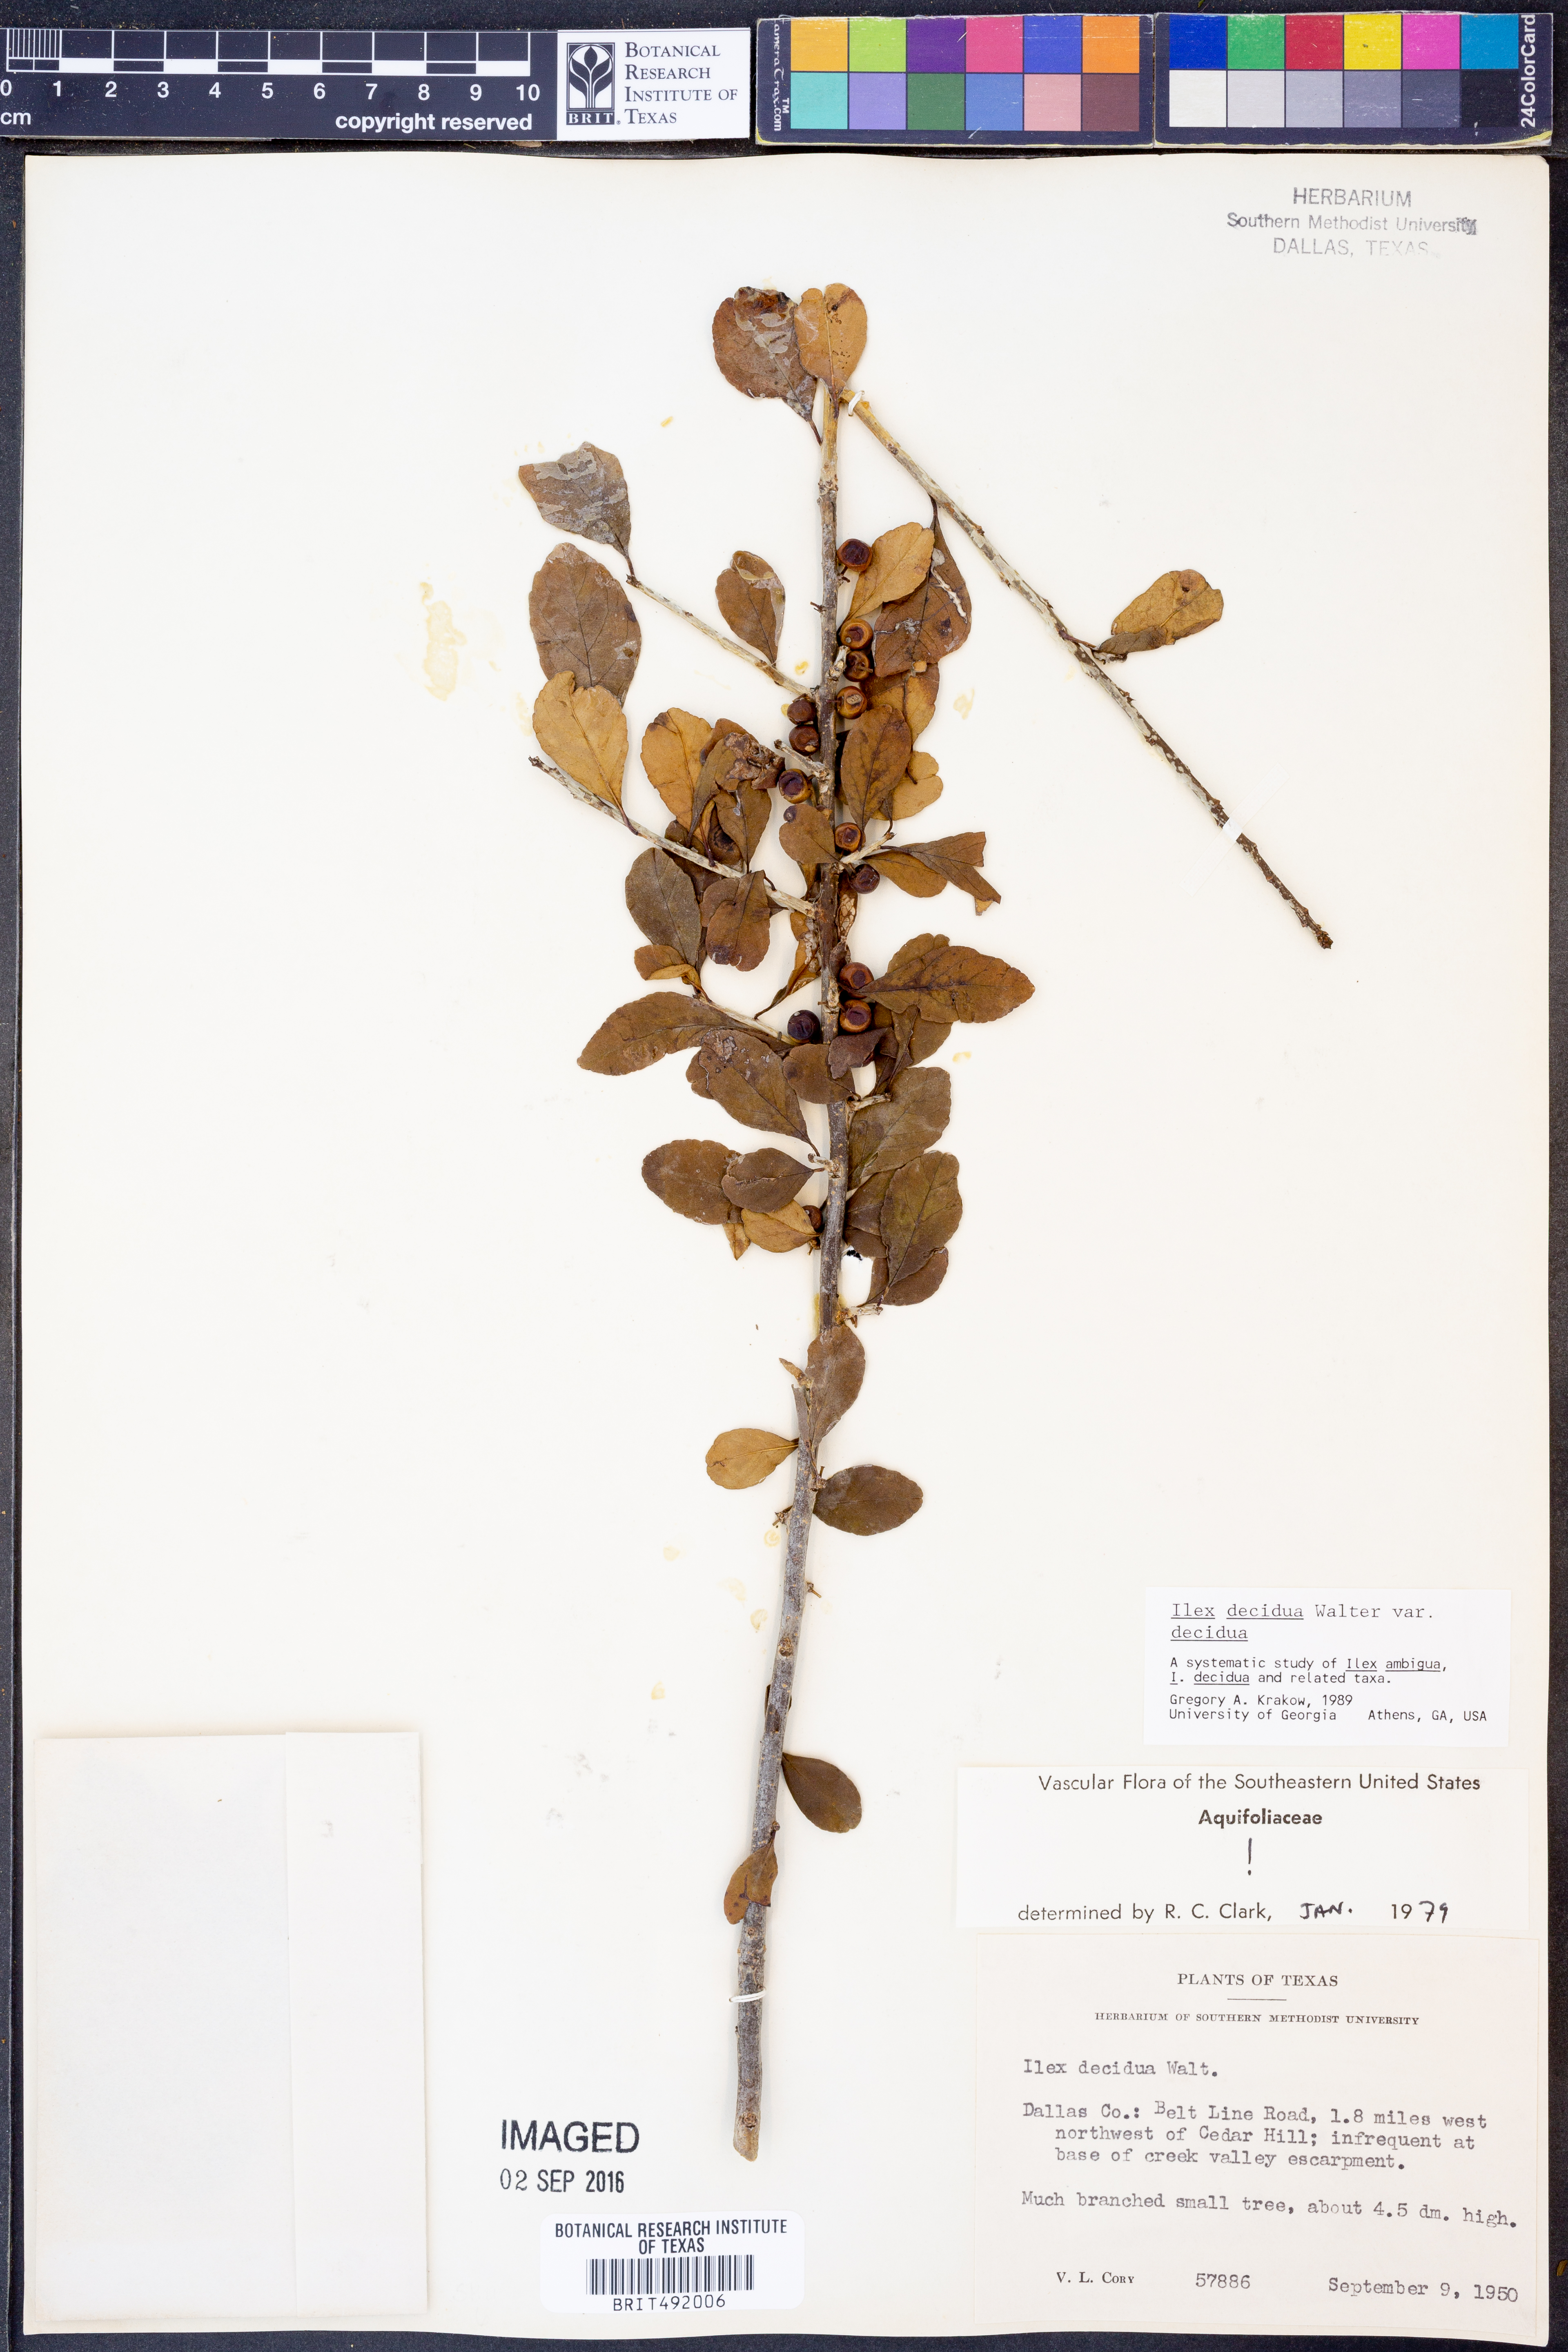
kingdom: Plantae
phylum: Tracheophyta
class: Magnoliopsida
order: Aquifoliales
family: Aquifoliaceae
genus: Ilex
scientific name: Ilex decidua
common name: Possum-haw
